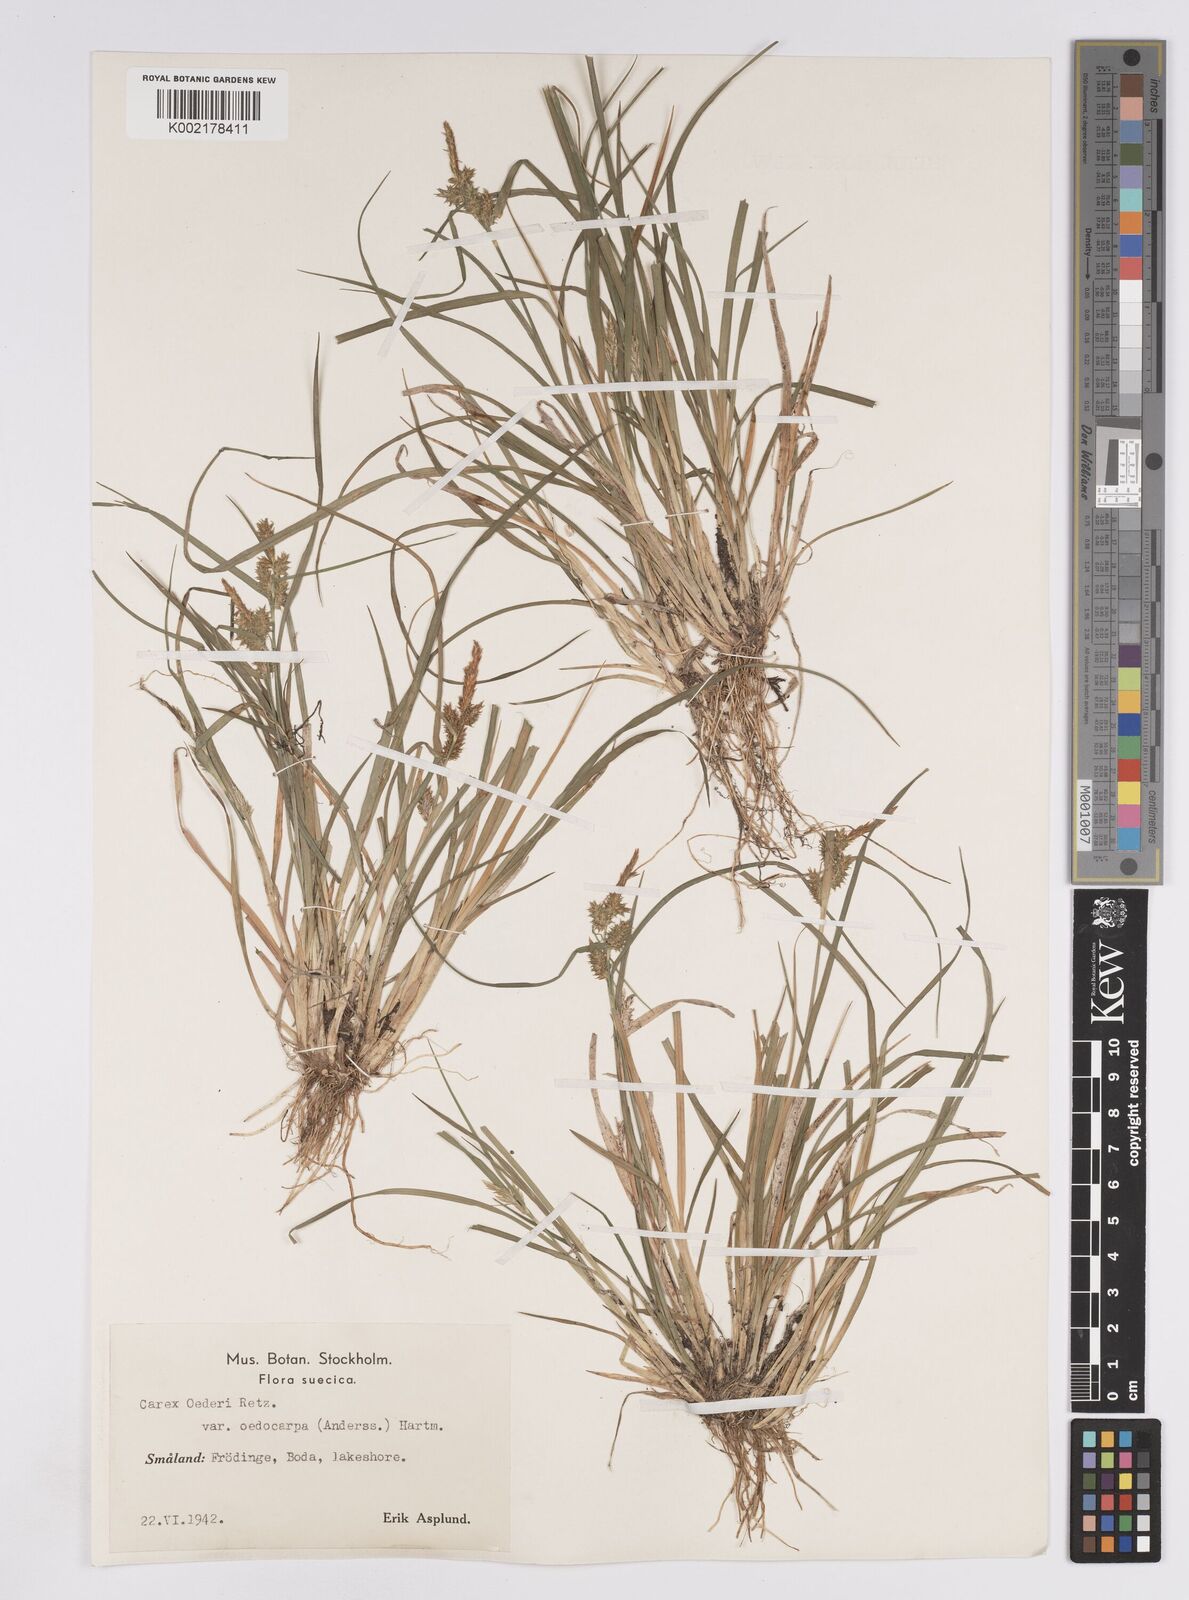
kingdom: Plantae
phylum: Tracheophyta
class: Liliopsida
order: Poales
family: Cyperaceae
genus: Carex
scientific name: Carex demissa
